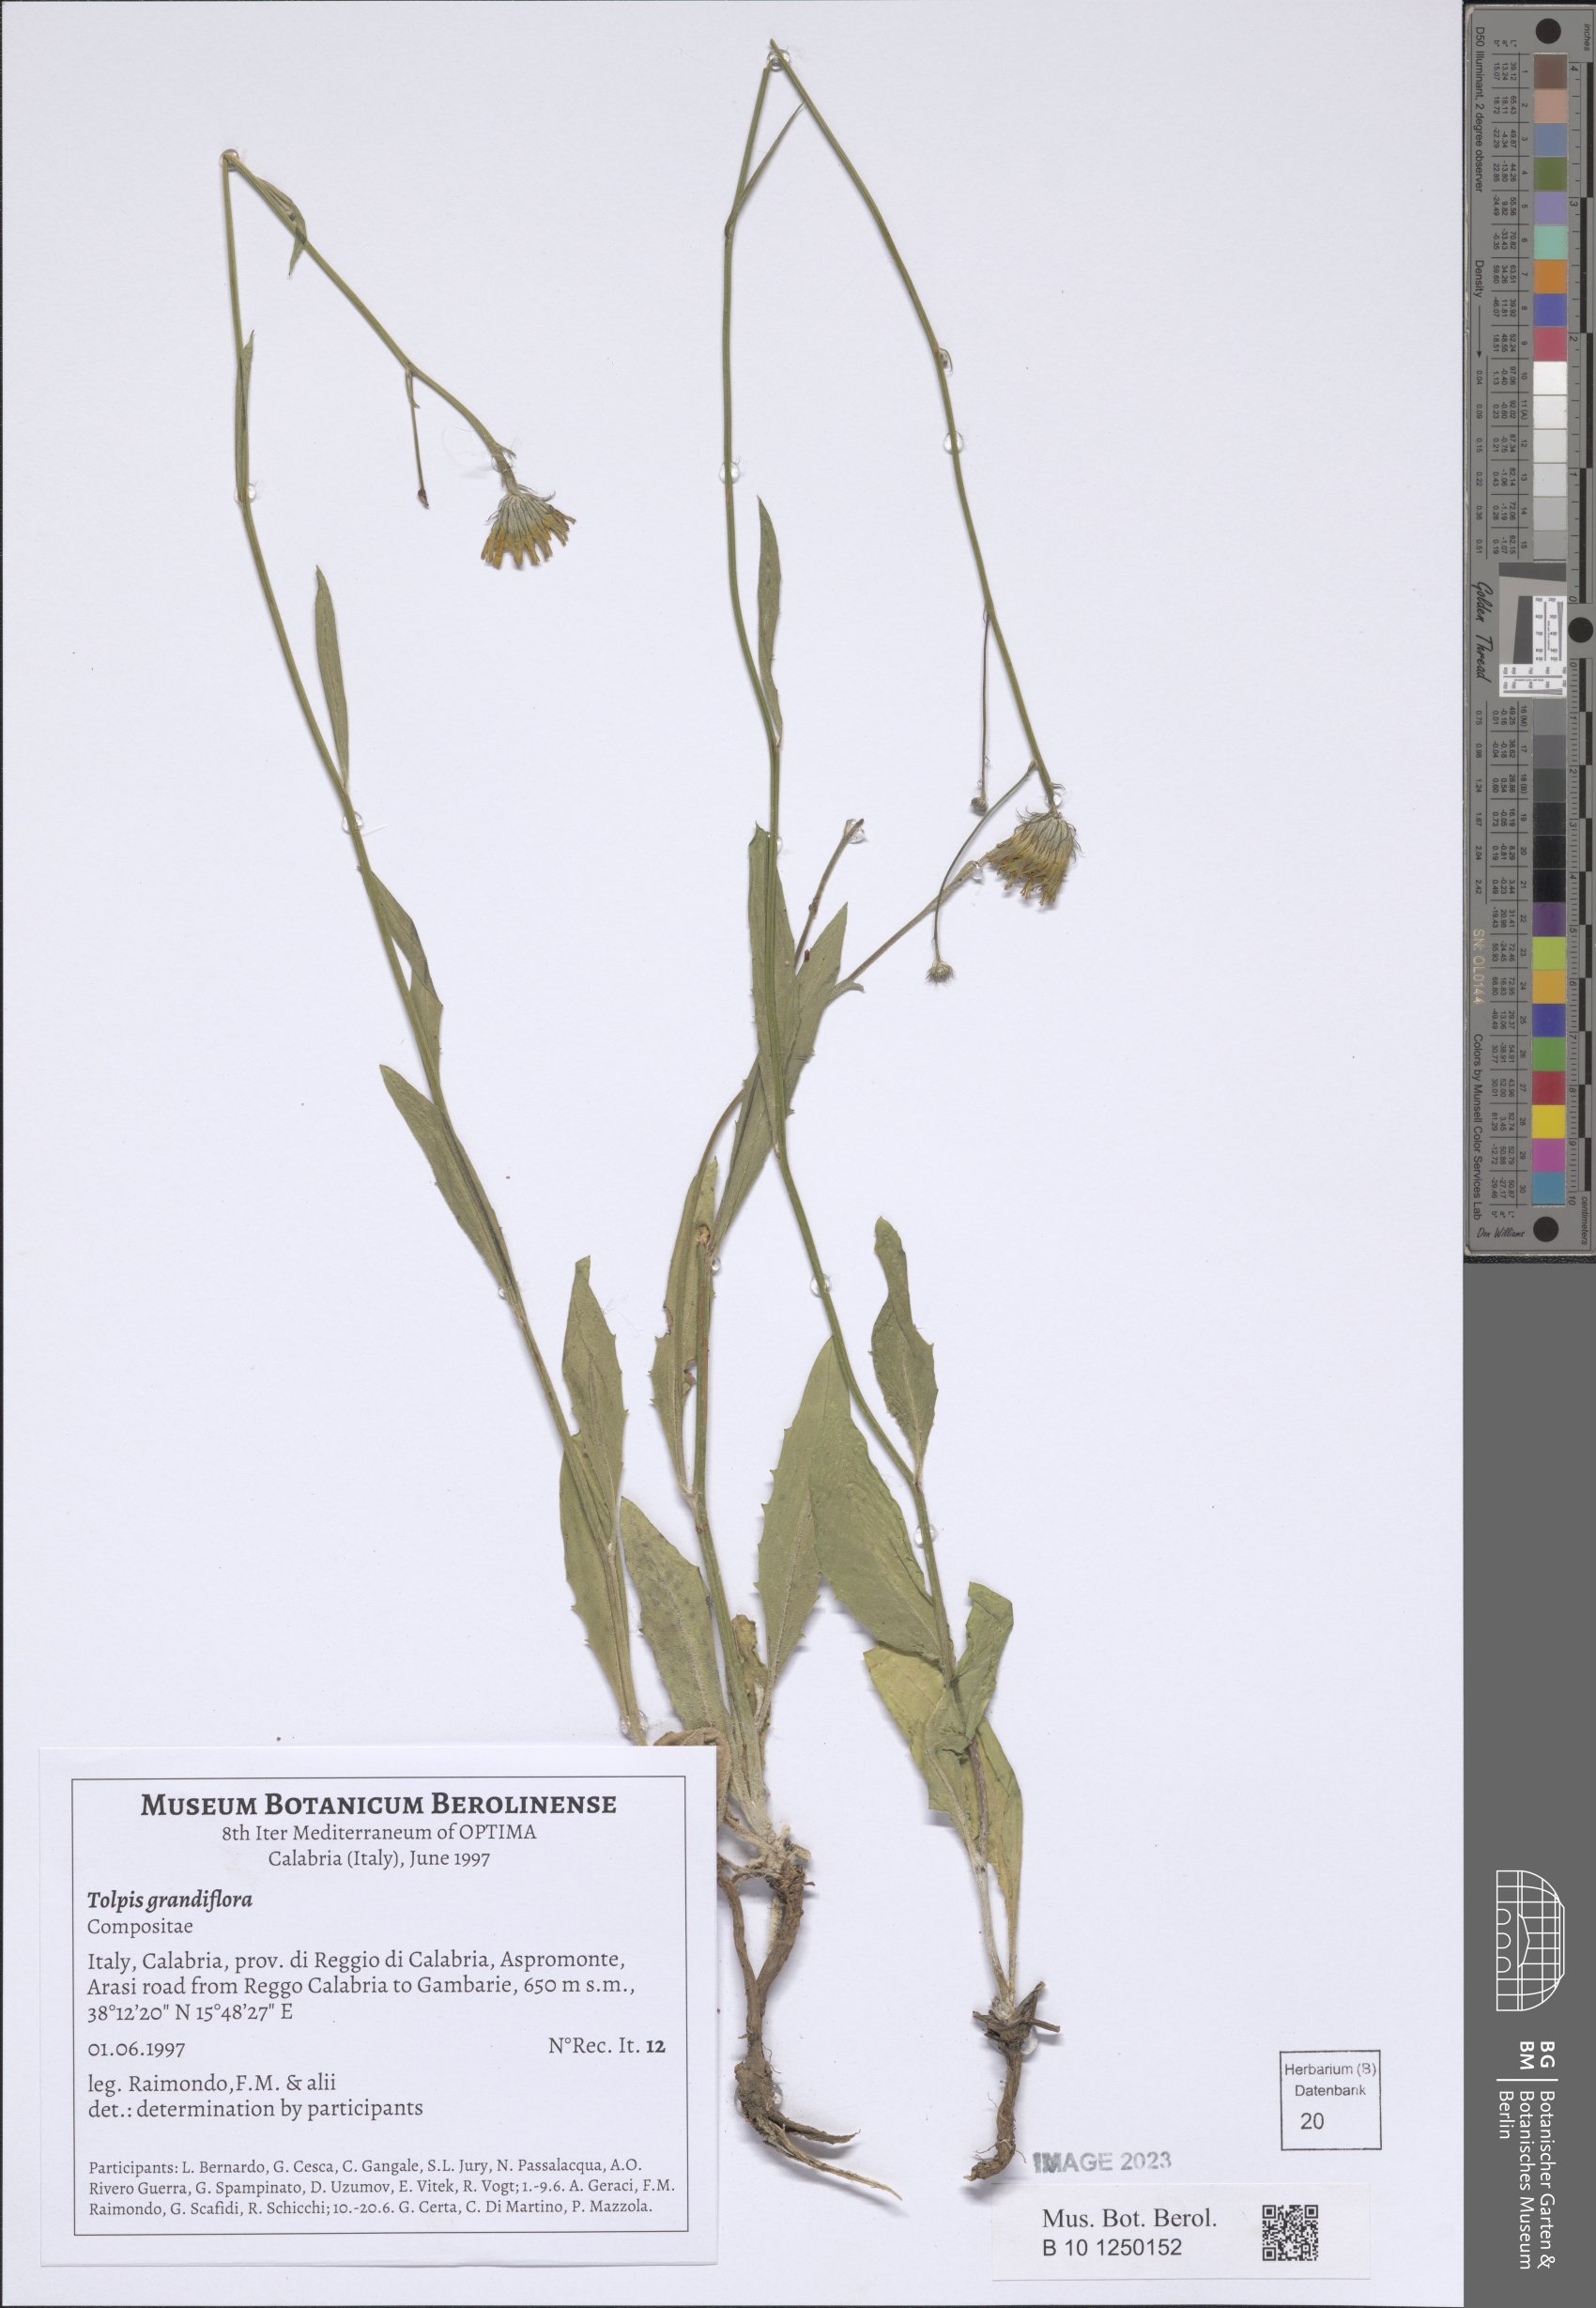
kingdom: Plantae
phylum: Tracheophyta
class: Magnoliopsida
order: Asterales
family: Asteraceae
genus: Tolpis
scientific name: Tolpis virgata
